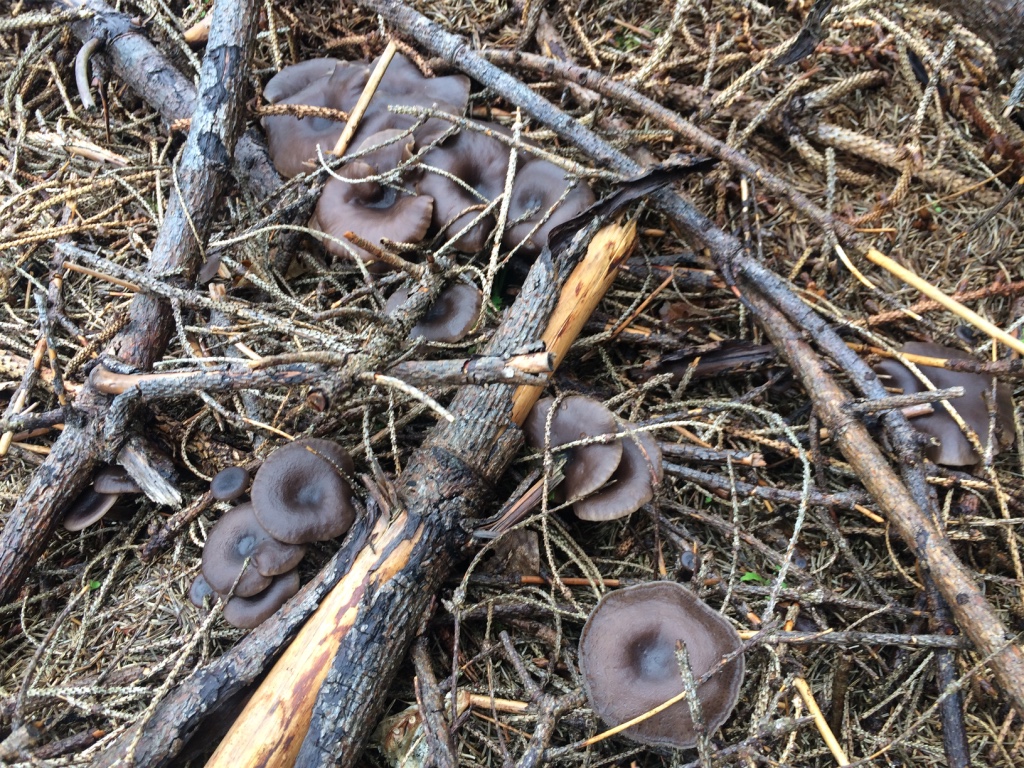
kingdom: Fungi
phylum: Basidiomycota
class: Agaricomycetes
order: Agaricales
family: Tricholomataceae
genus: Myxomphalia
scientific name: Myxomphalia maura
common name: kulhat
